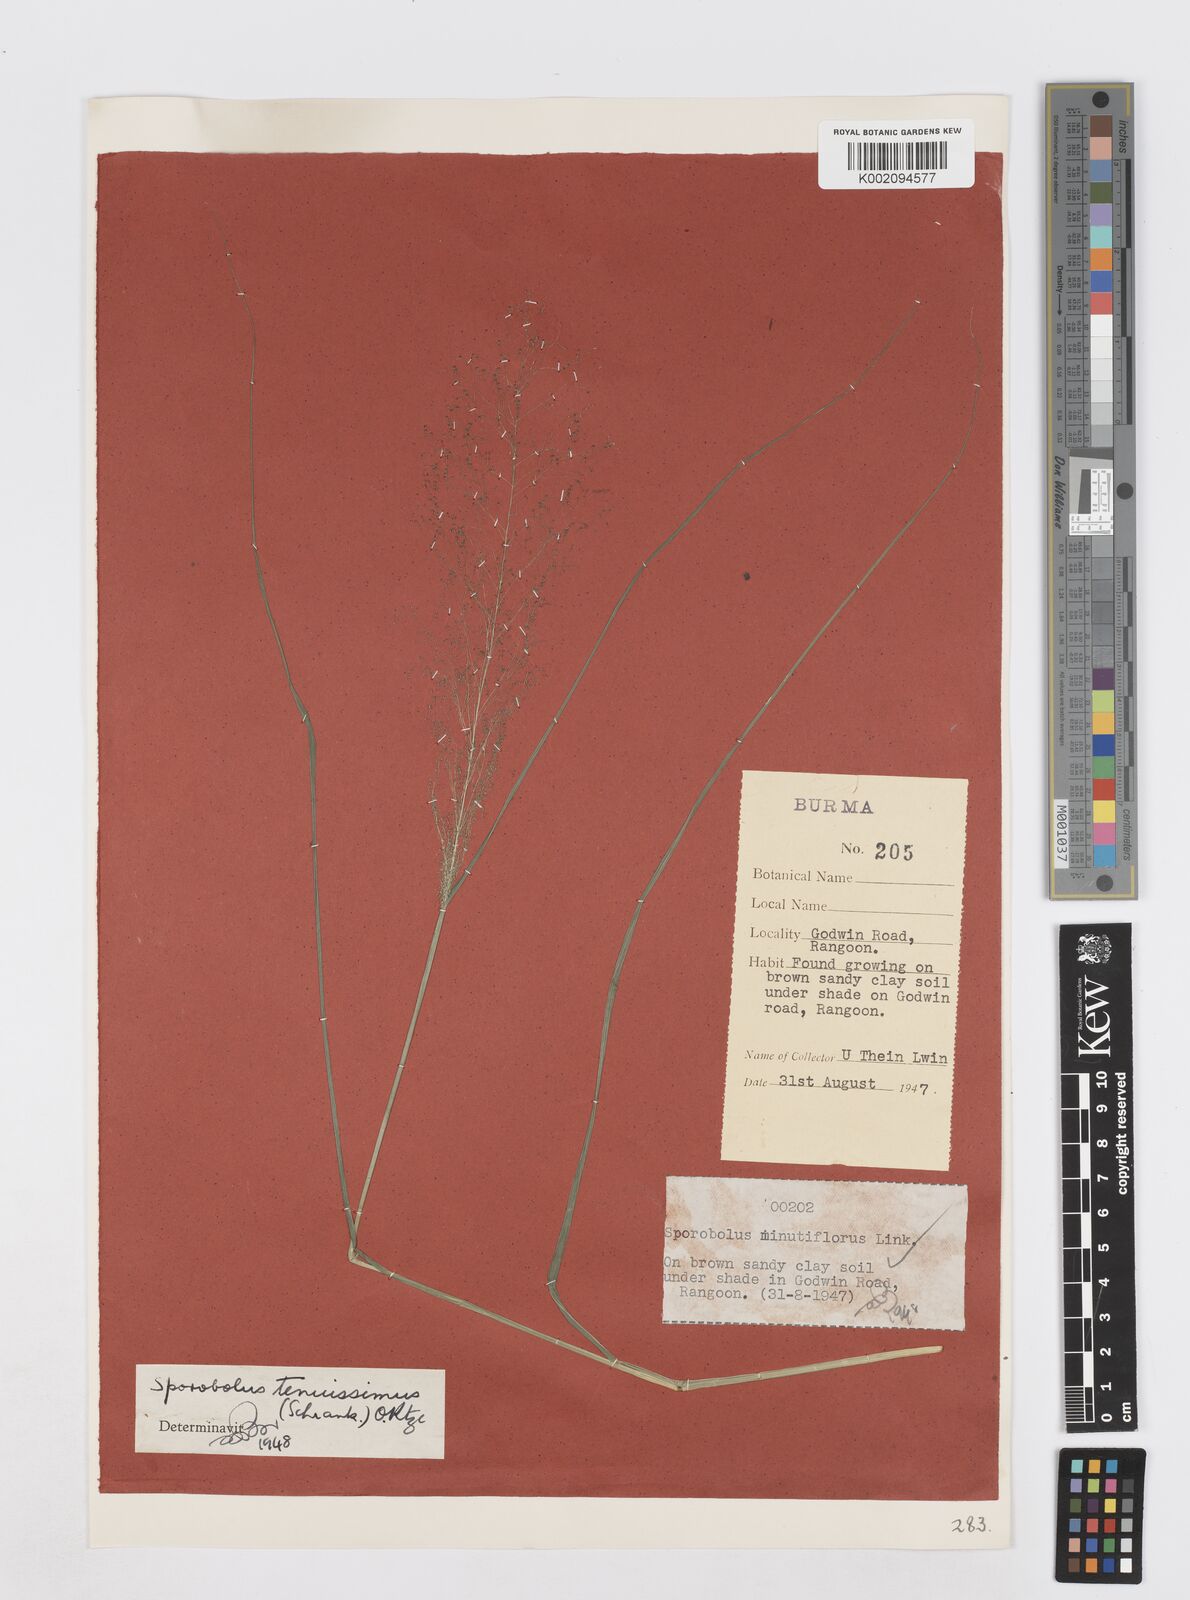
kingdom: Plantae
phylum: Tracheophyta
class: Liliopsida
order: Poales
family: Poaceae
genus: Sporobolus
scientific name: Sporobolus tenuissimus
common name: Tropical dropseed
